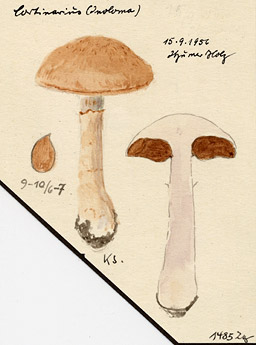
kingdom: Fungi
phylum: Basidiomycota
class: Agaricomycetes
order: Agaricales
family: Cortinariaceae
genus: Cortinarius
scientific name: Cortinarius
